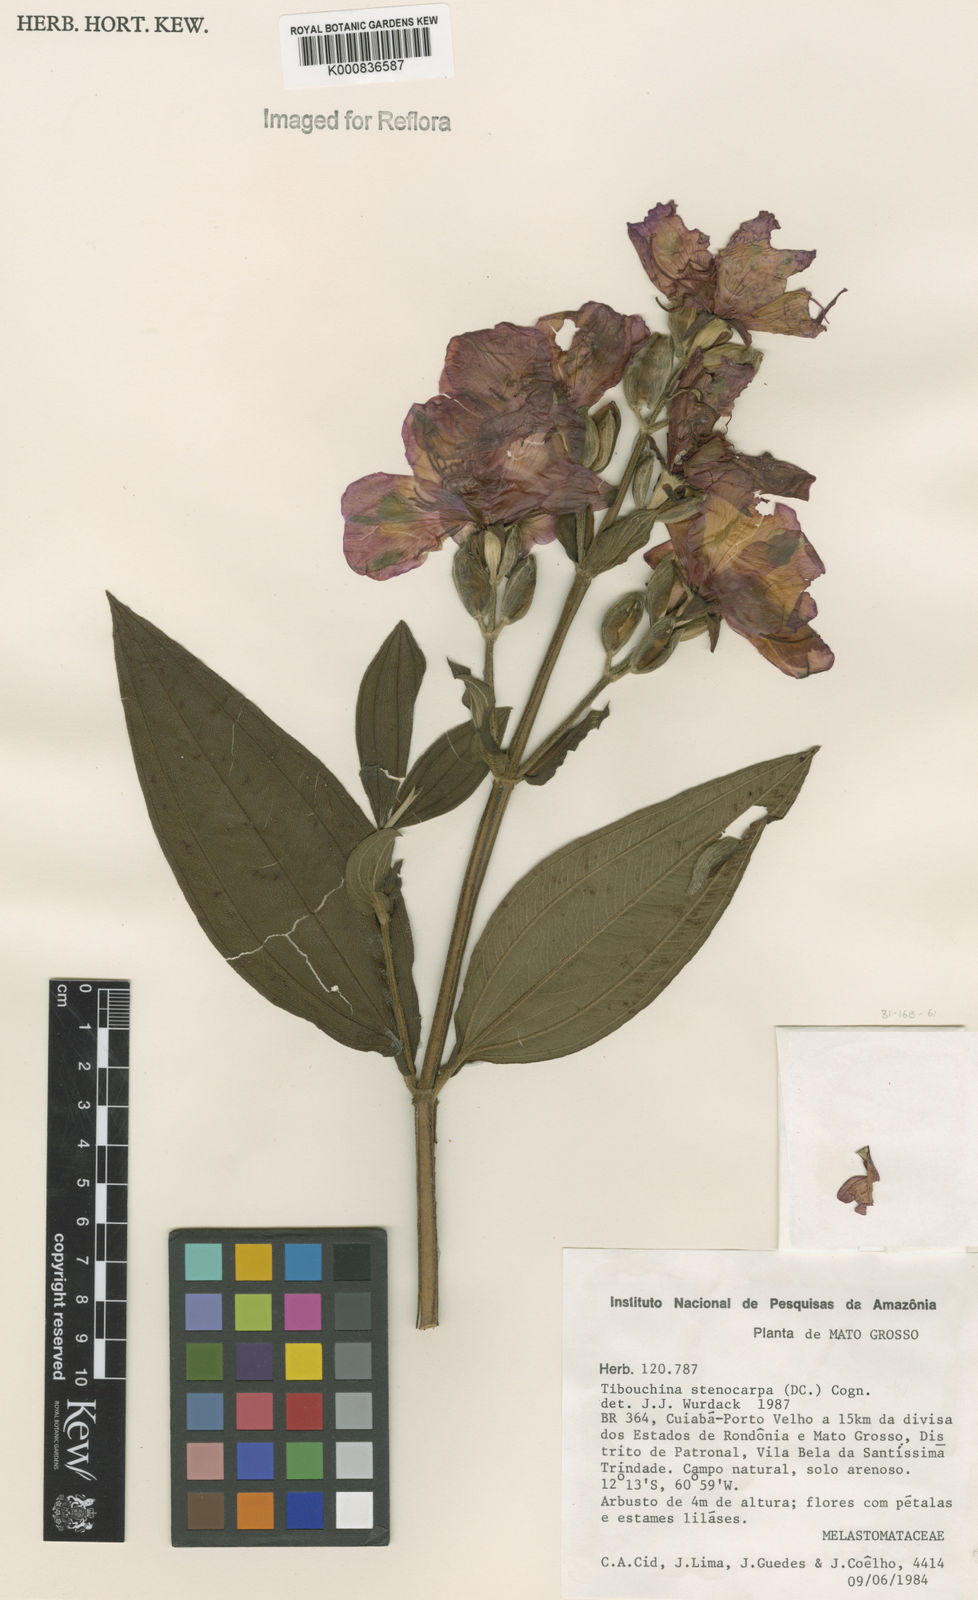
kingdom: Plantae
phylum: Tracheophyta
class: Magnoliopsida
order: Myrtales
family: Melastomataceae
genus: Pleroma
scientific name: Pleroma stenocarpum
